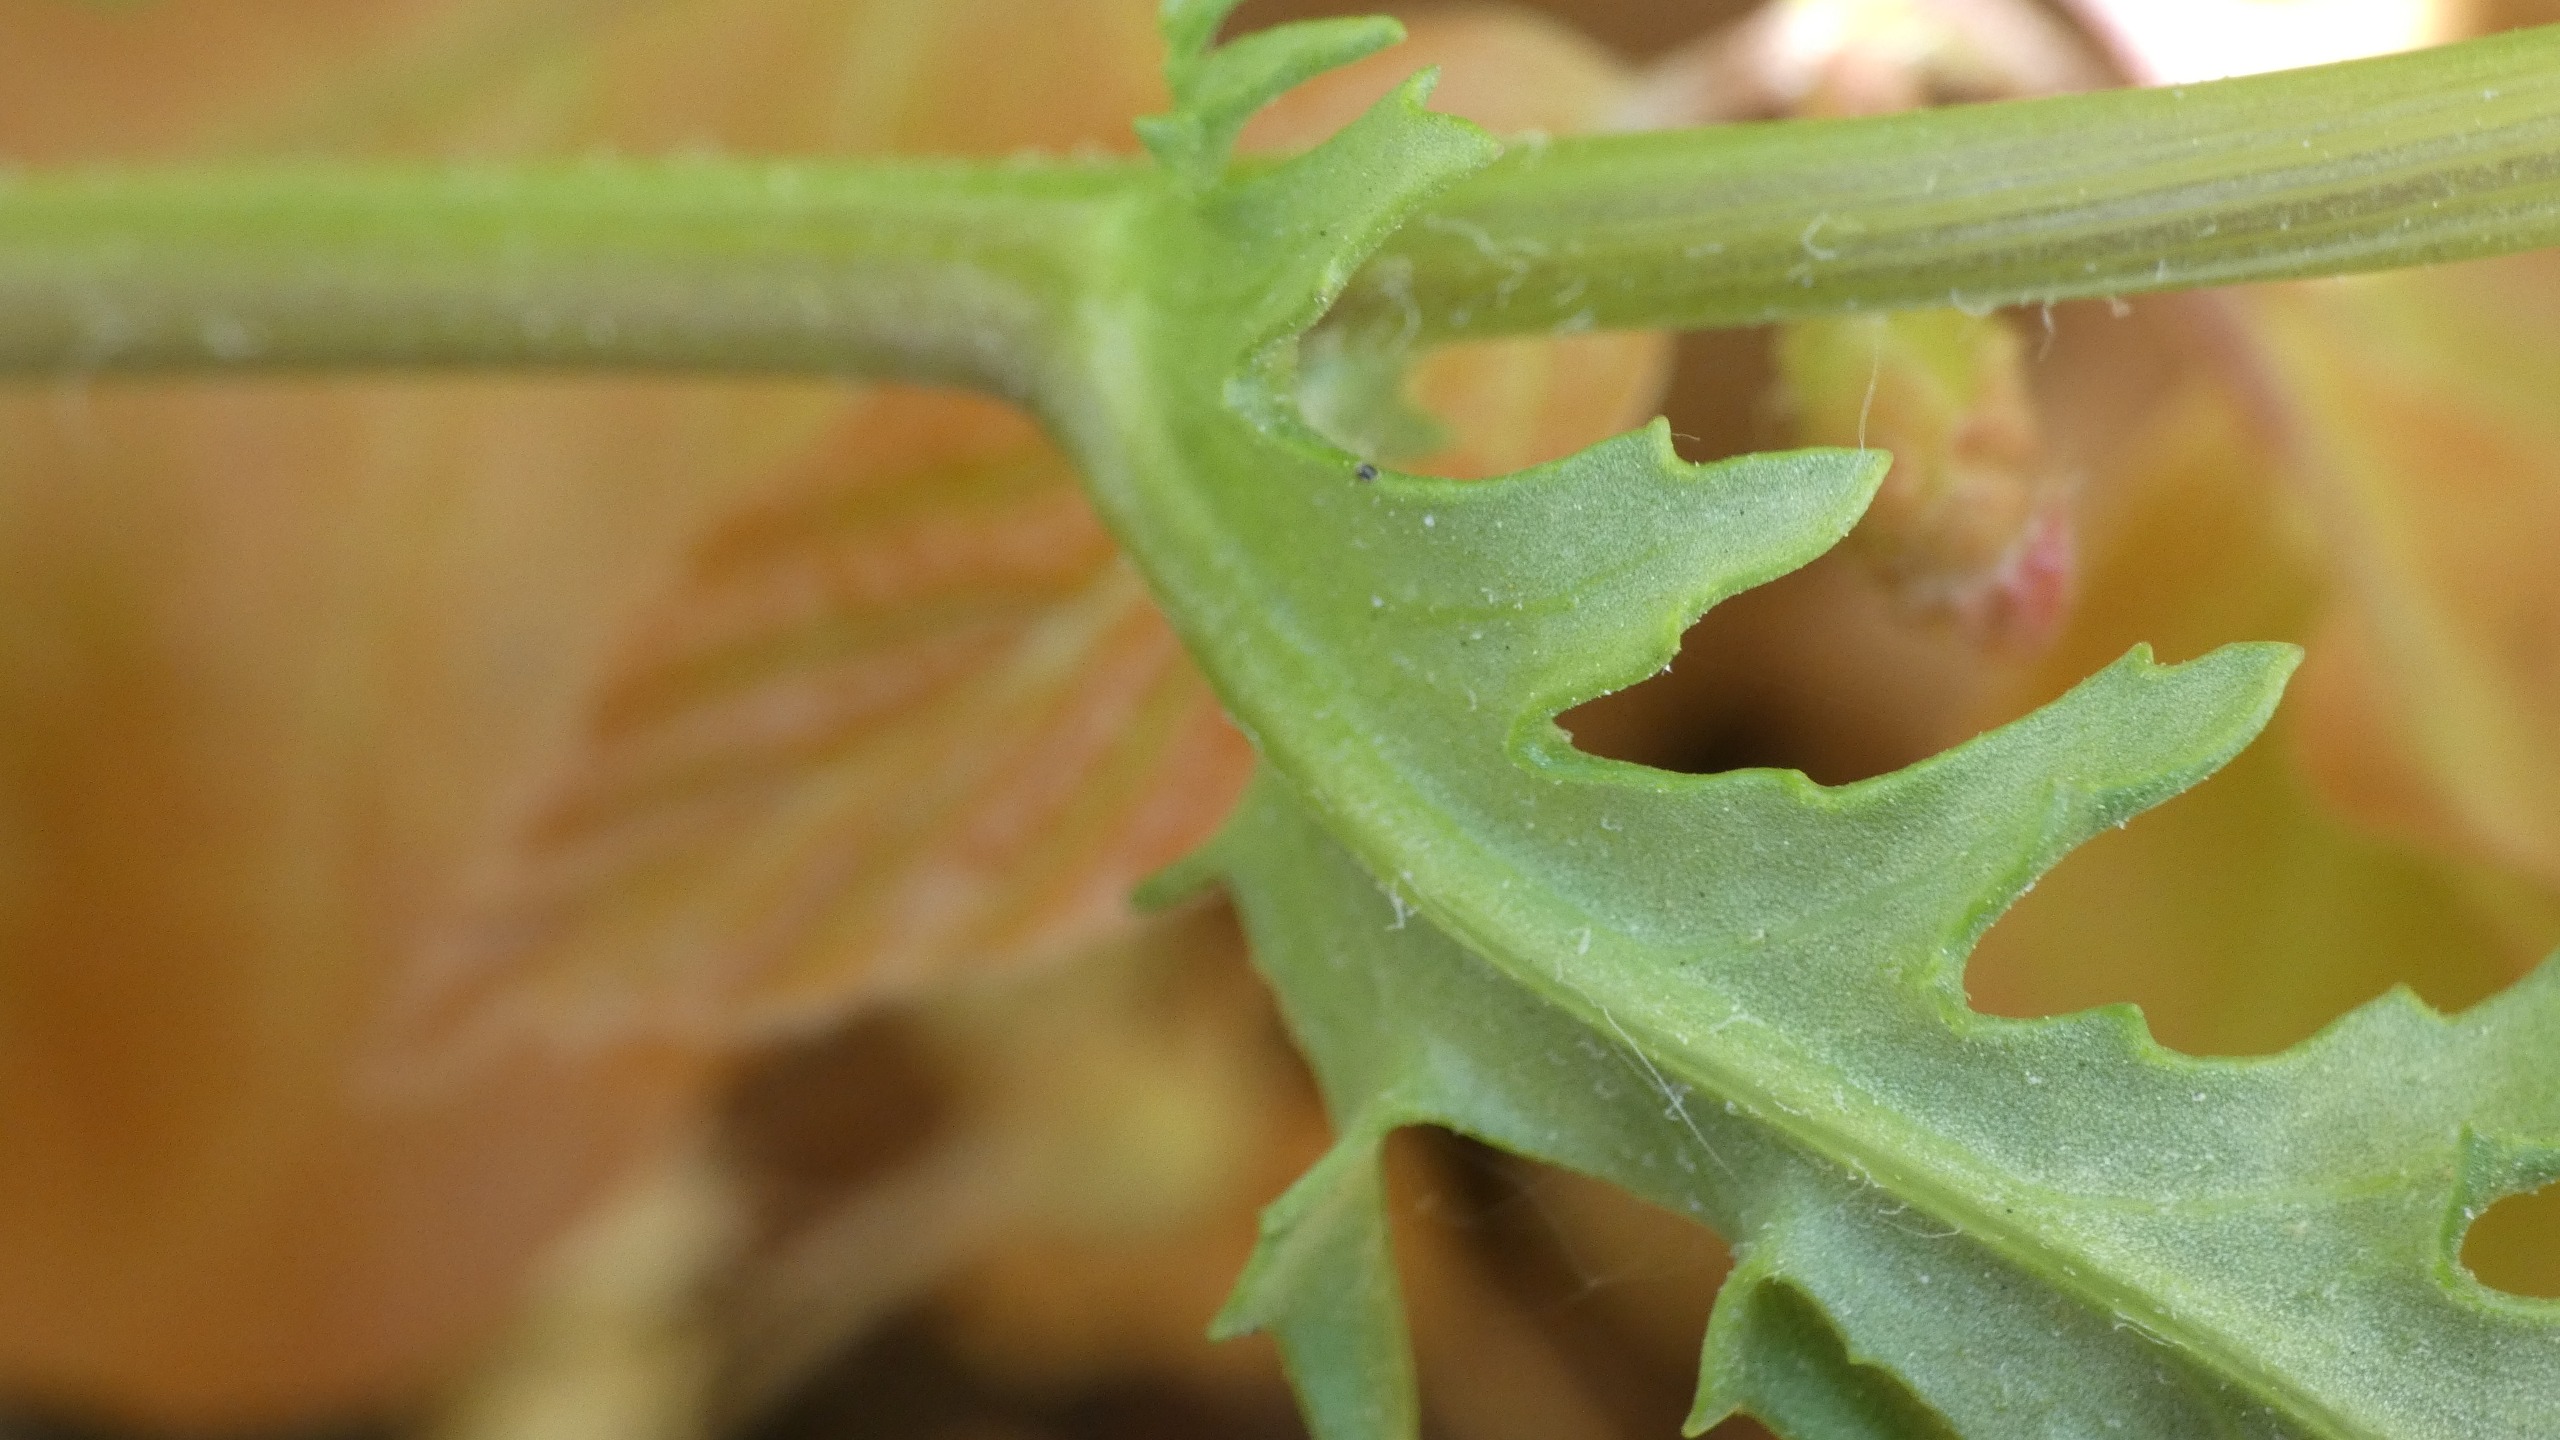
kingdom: Plantae
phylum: Tracheophyta
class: Magnoliopsida
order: Asterales
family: Asteraceae
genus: Senecio
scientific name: Senecio vulgaris
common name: Almindelig brandbæger
